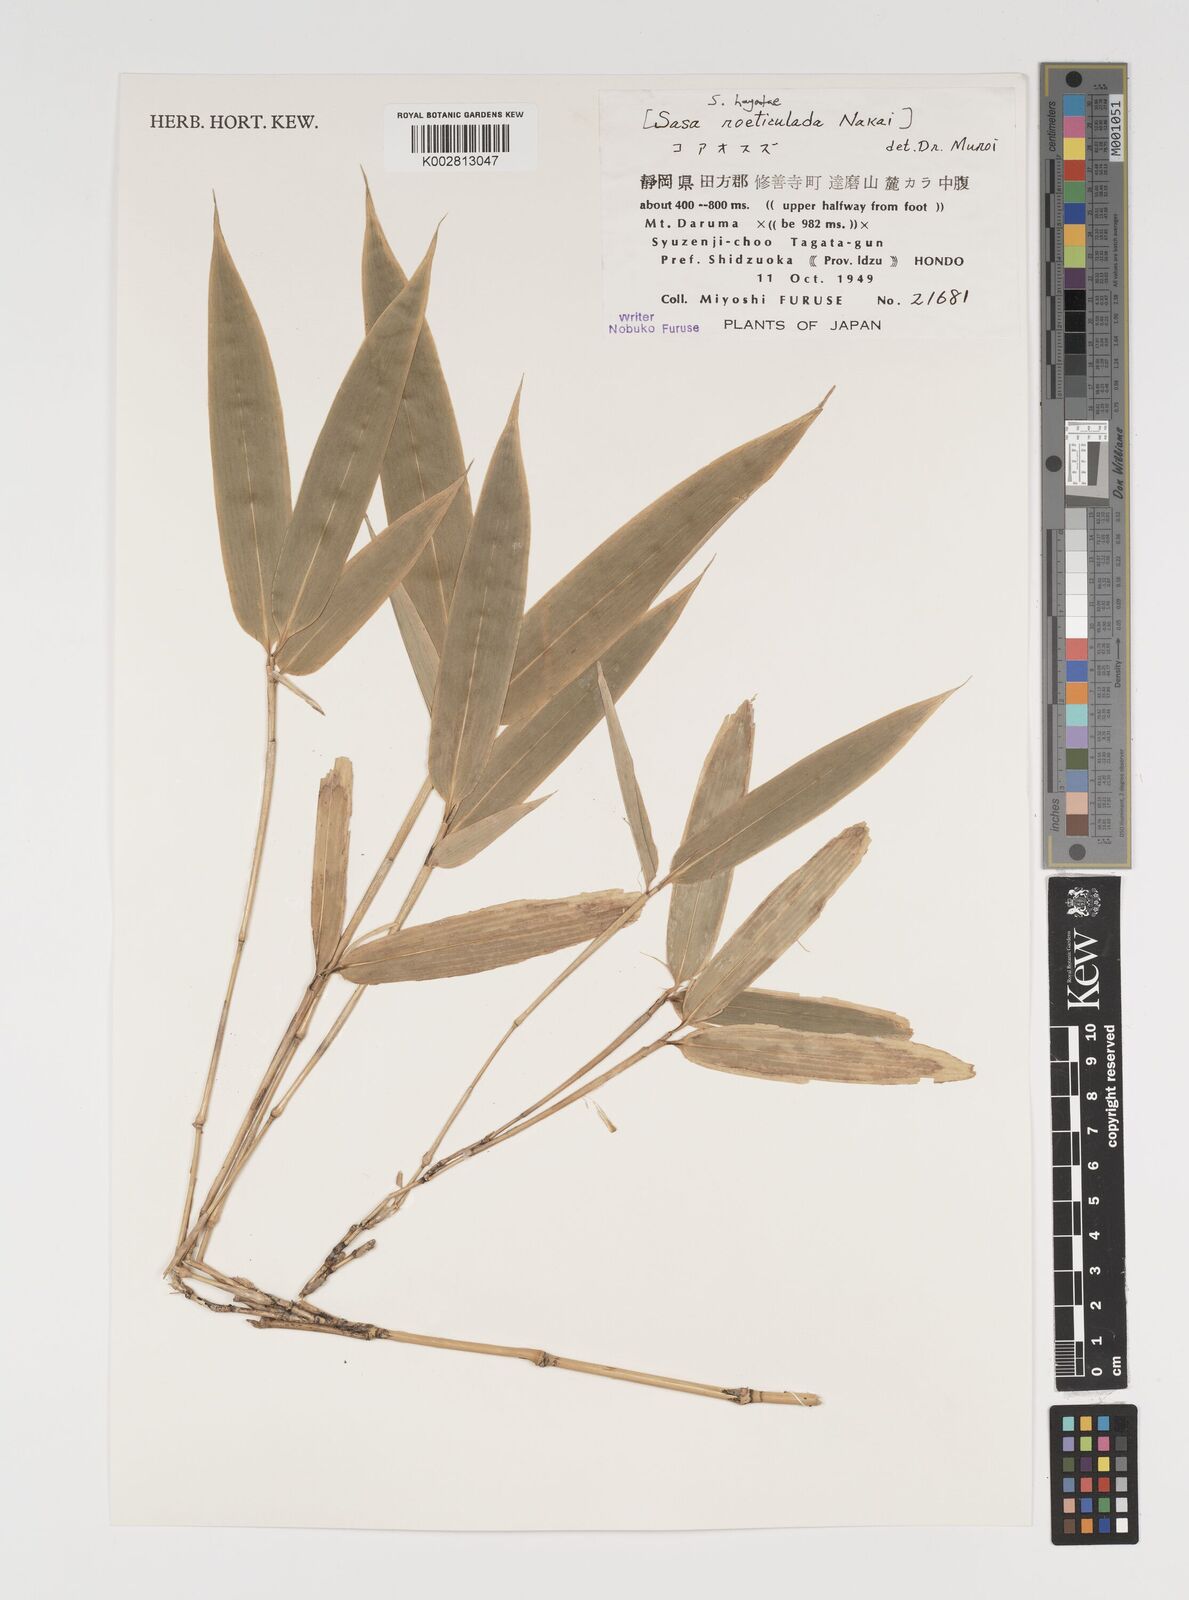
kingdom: Plantae
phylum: Tracheophyta
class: Liliopsida
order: Poales
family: Poaceae
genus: Sasa
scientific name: Sasa hayatae
